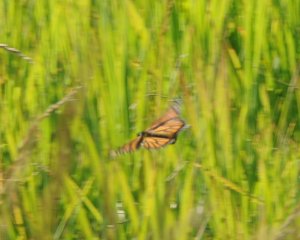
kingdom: Animalia
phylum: Arthropoda
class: Insecta
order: Lepidoptera
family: Nymphalidae
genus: Danaus
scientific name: Danaus plexippus
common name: Monarch
